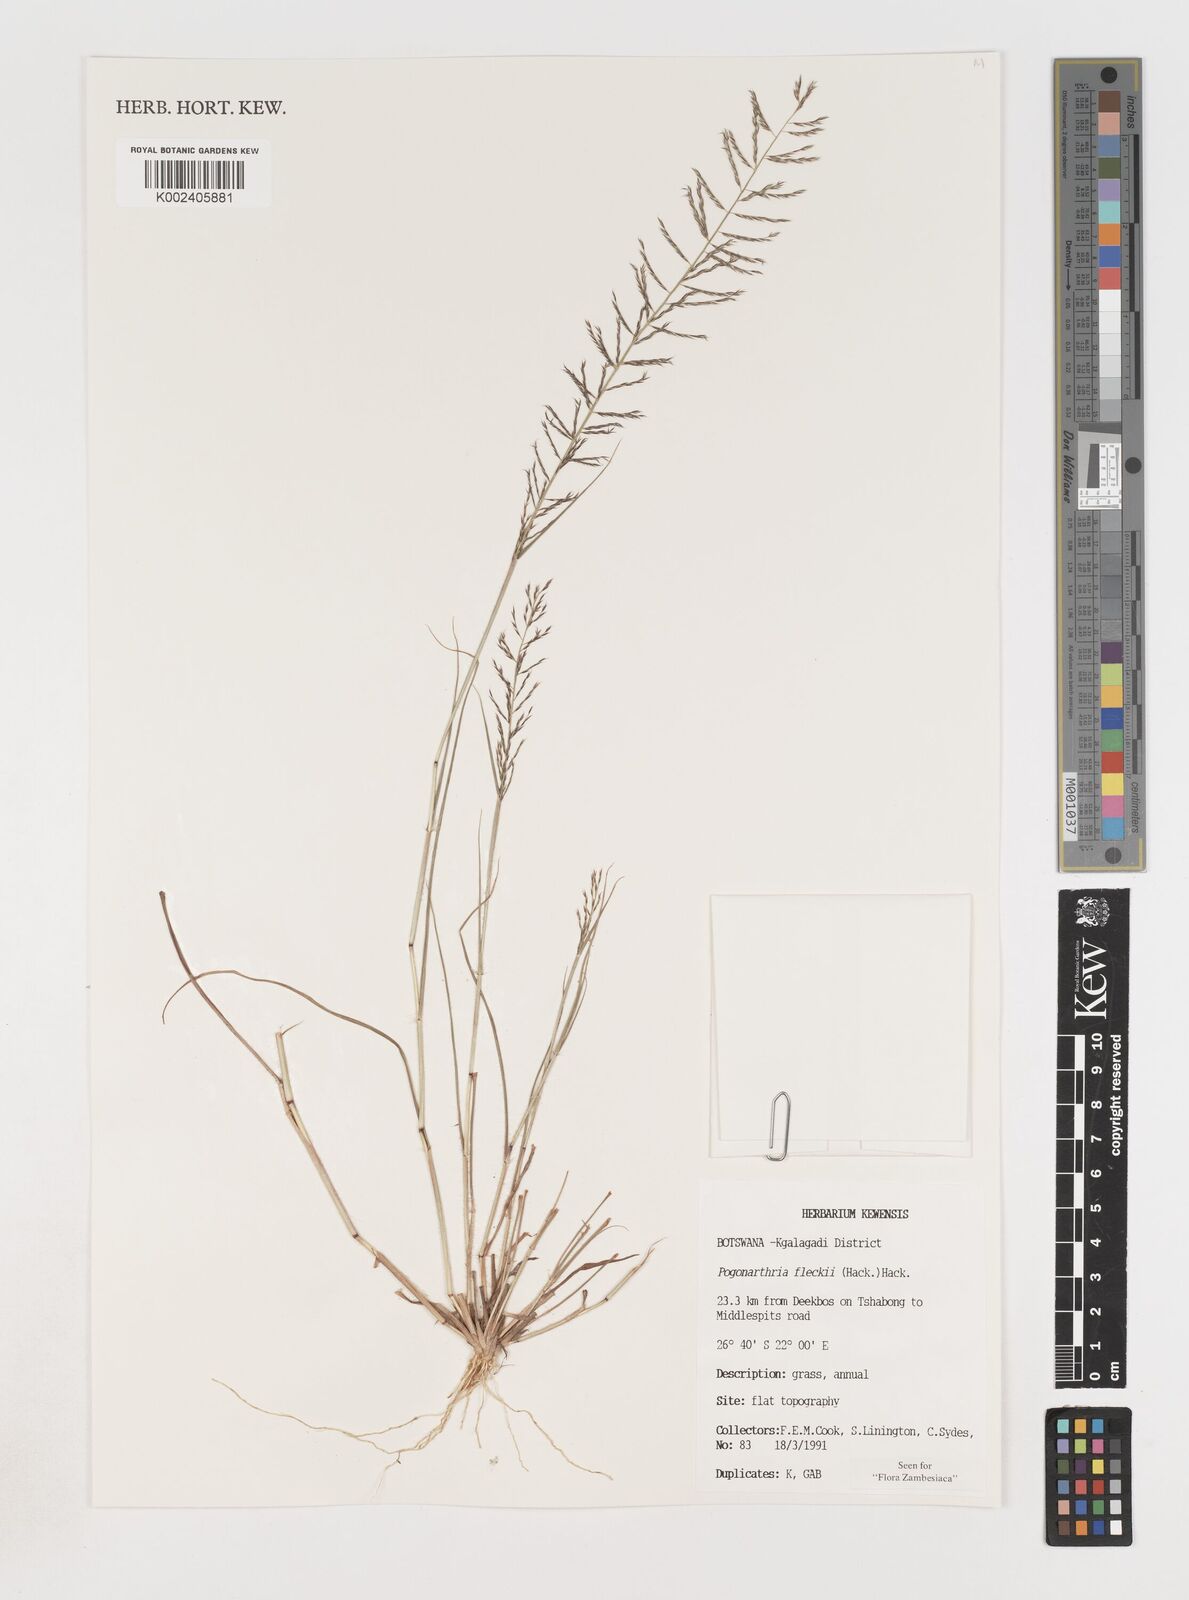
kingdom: Plantae
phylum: Tracheophyta
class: Liliopsida
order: Poales
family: Poaceae
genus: Pogonarthria
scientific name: Pogonarthria fleckii
